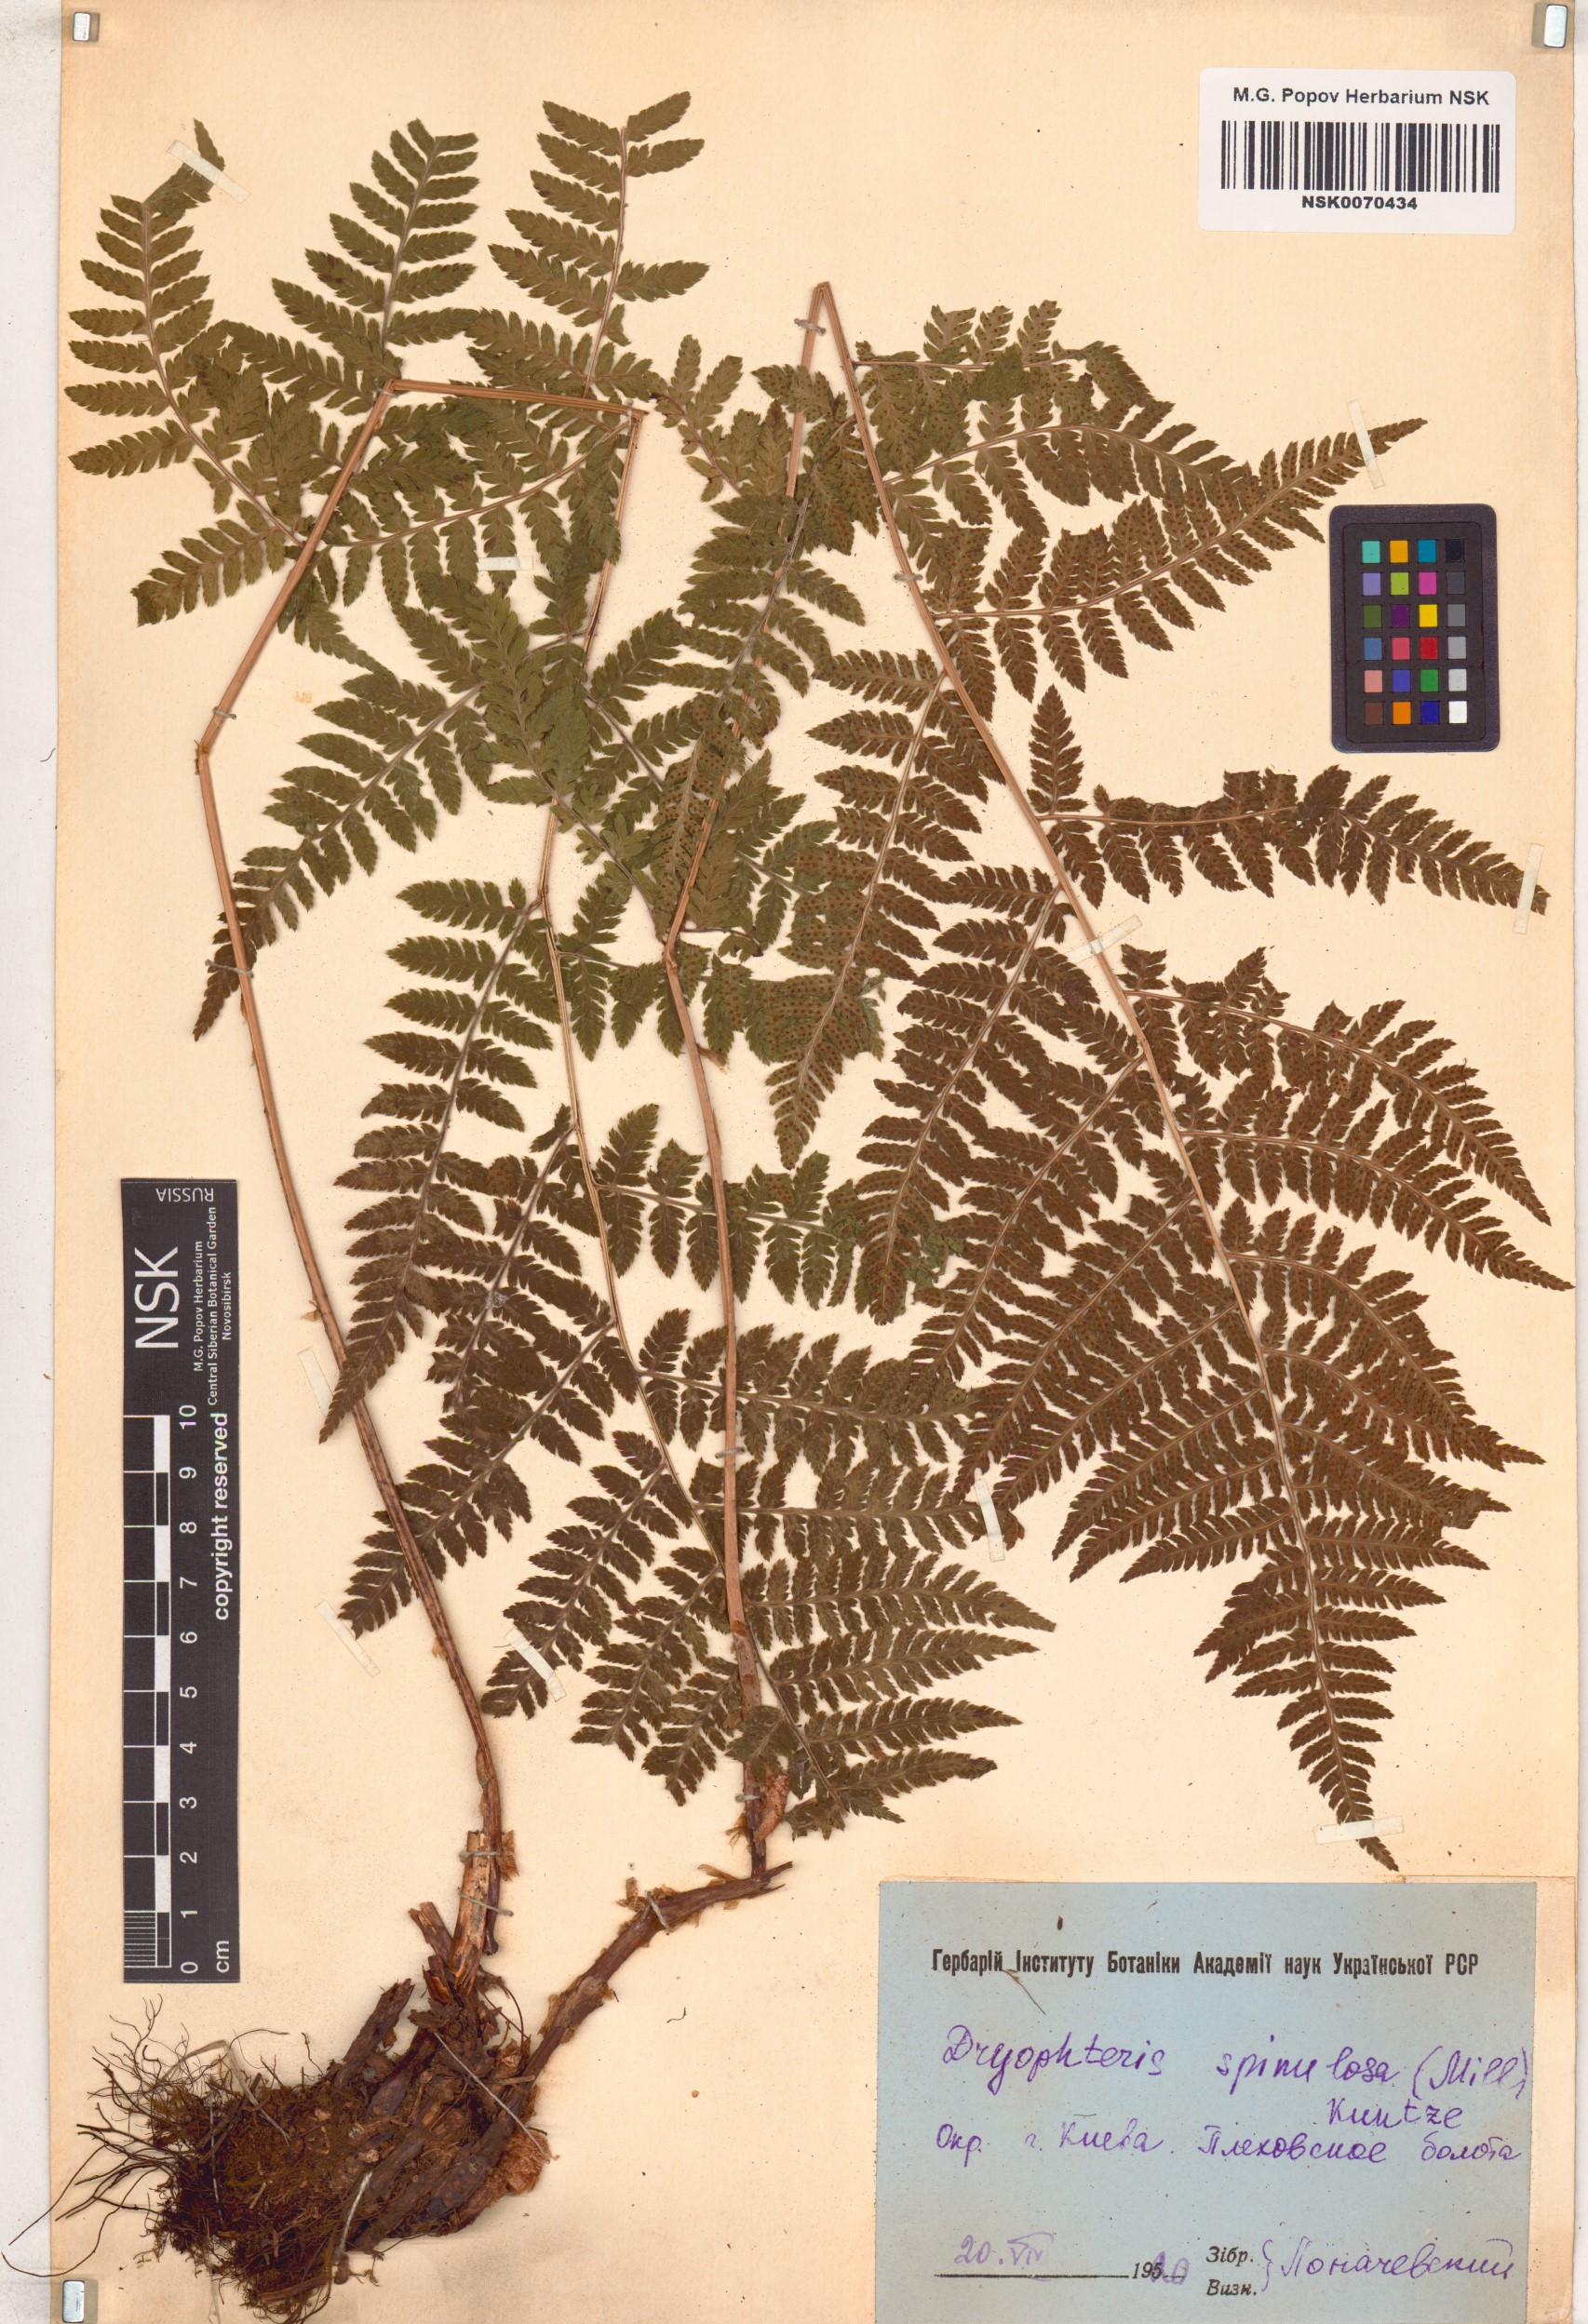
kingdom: Plantae
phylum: Tracheophyta
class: Polypodiopsida
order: Polypodiales
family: Dryopteridaceae
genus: Dryopteris
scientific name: Dryopteris carthusiana
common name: Narrow buckler-fern
